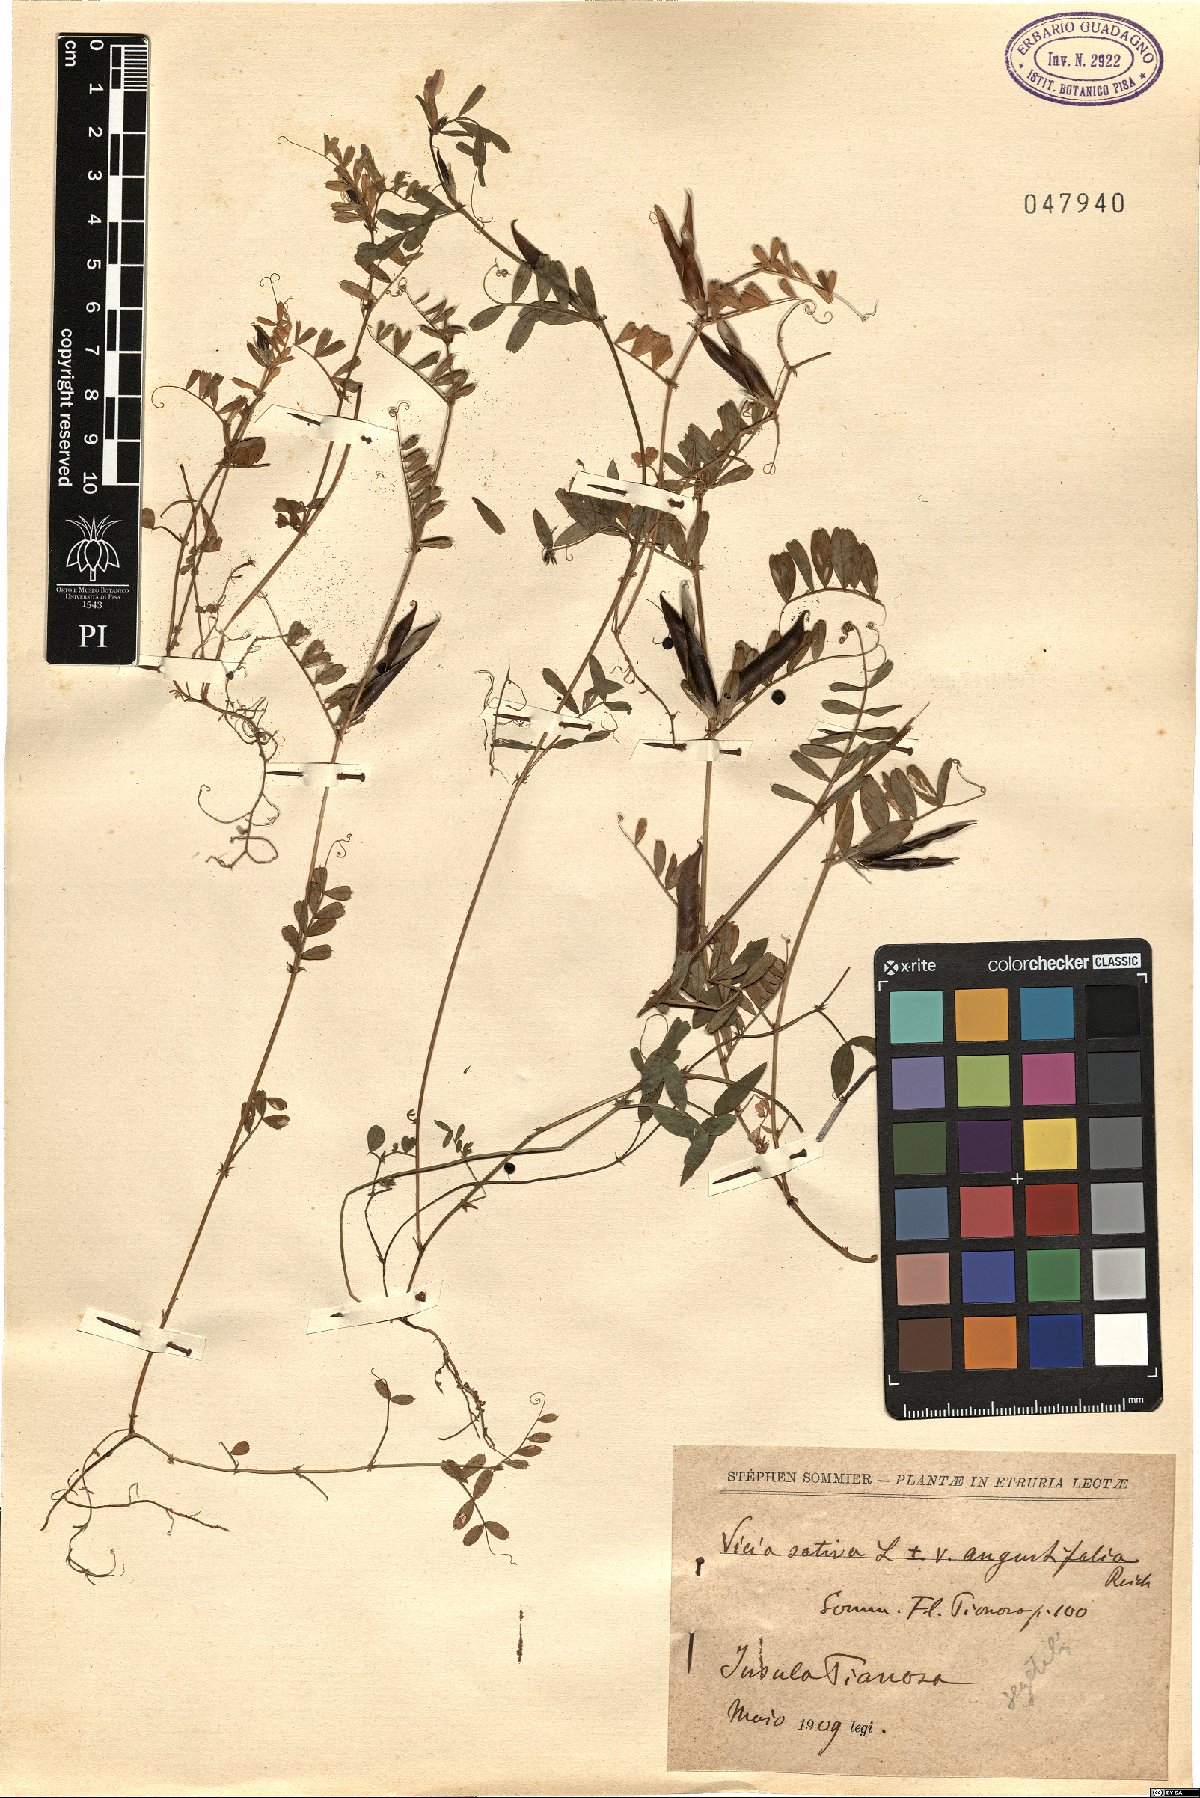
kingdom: Plantae
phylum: Tracheophyta
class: Magnoliopsida
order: Fabales
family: Fabaceae
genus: Vicia
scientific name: Vicia sativa
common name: Garden vetch
